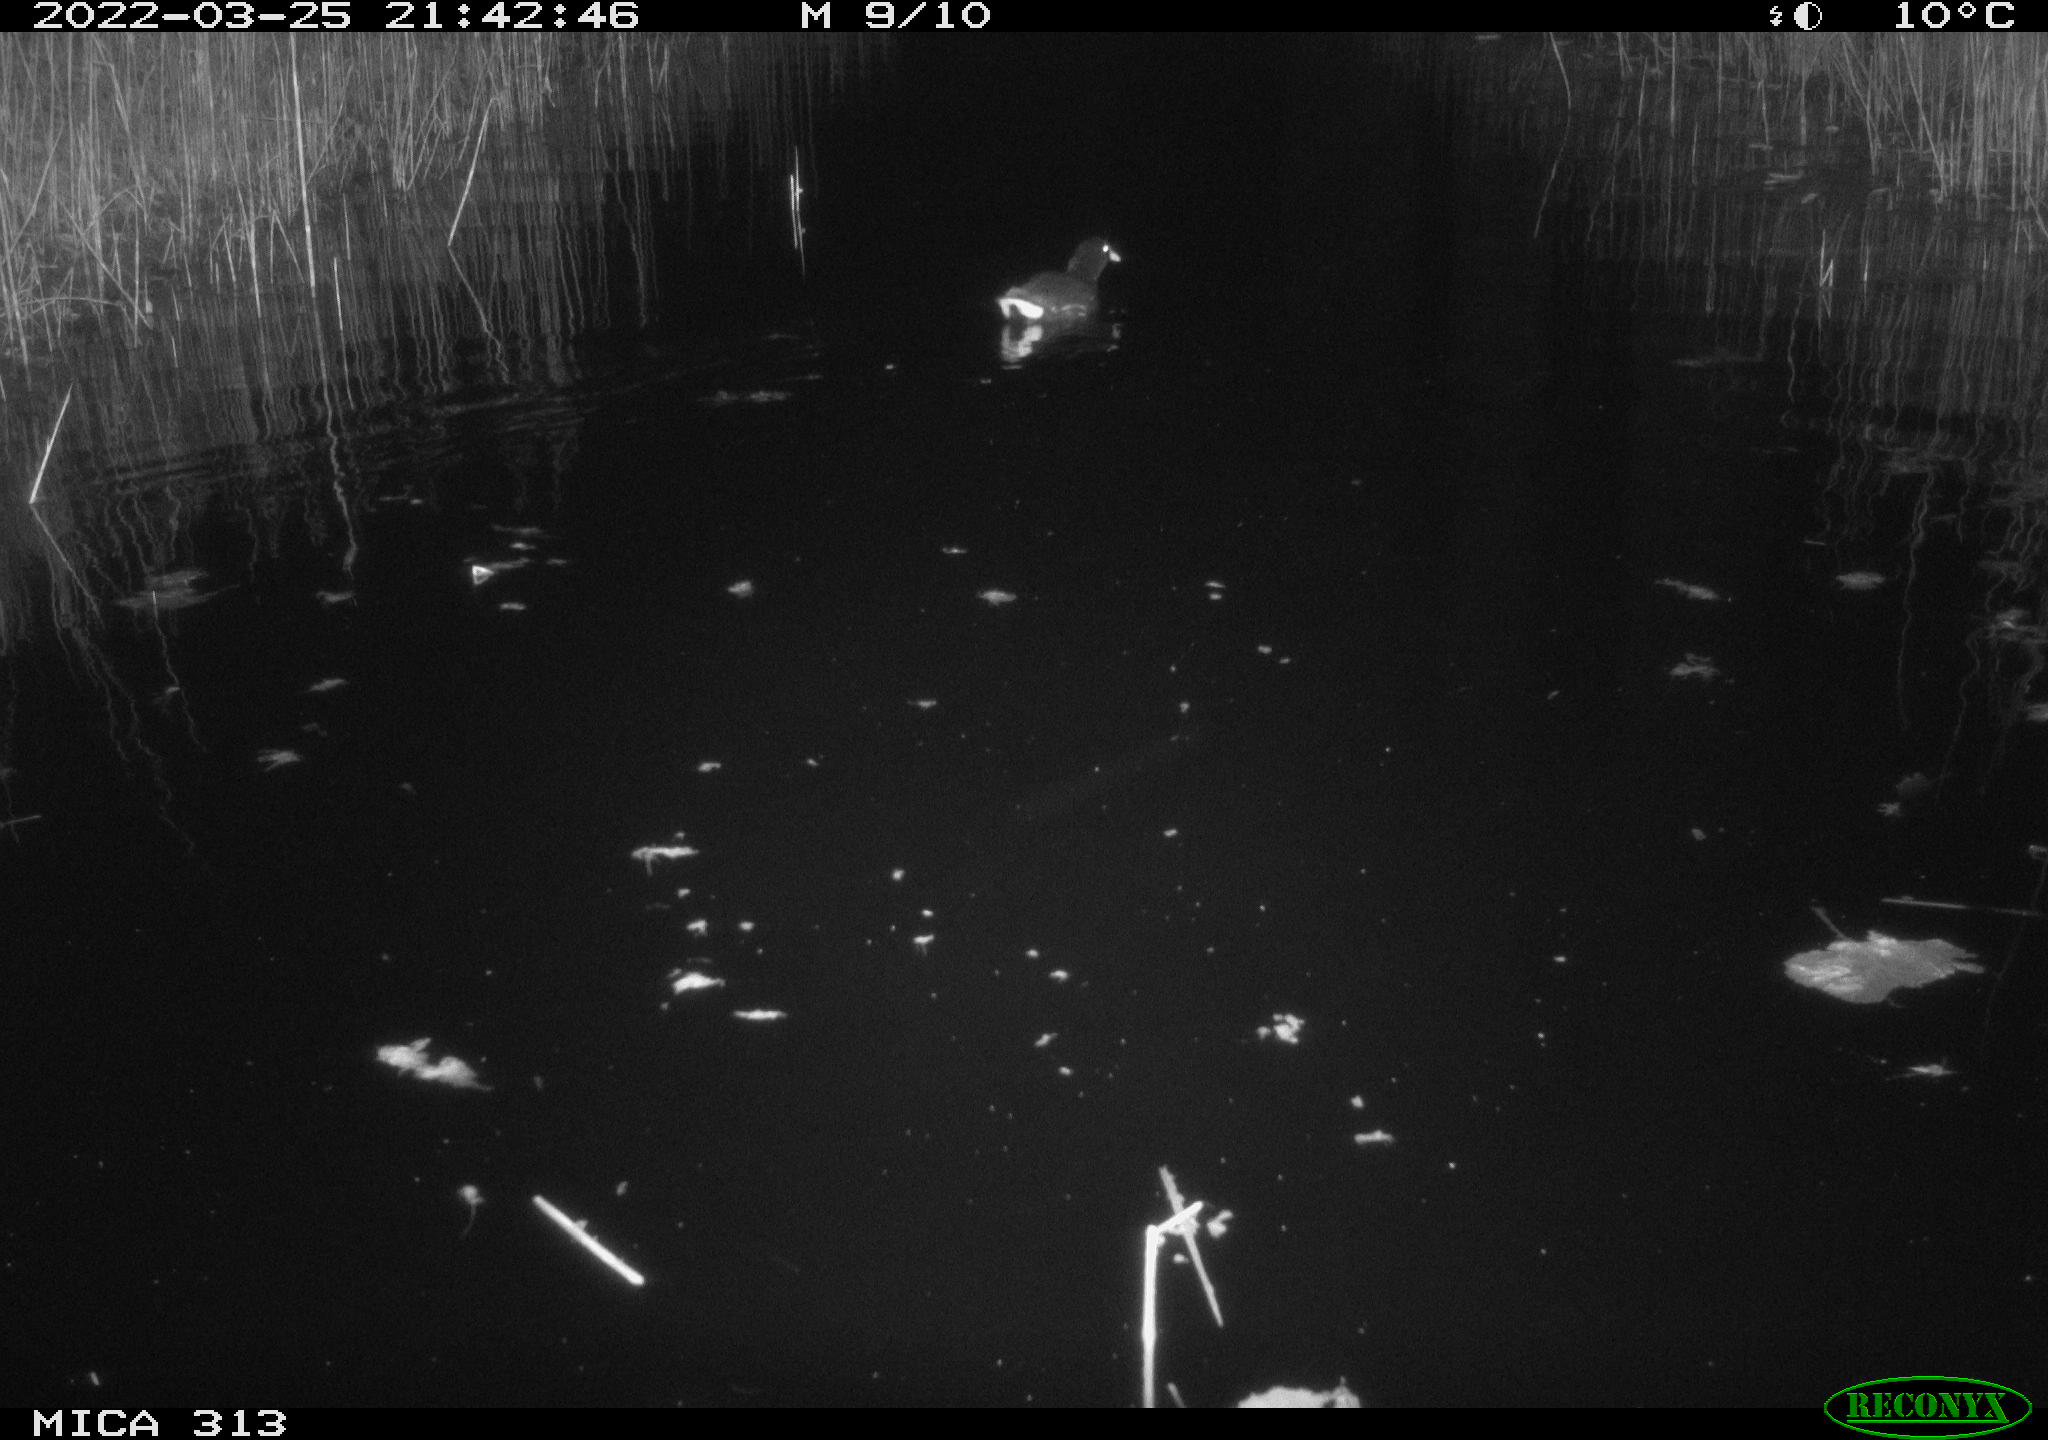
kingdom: Animalia
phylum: Chordata
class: Aves
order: Gruiformes
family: Rallidae
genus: Gallinula
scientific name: Gallinula chloropus
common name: Common moorhen
